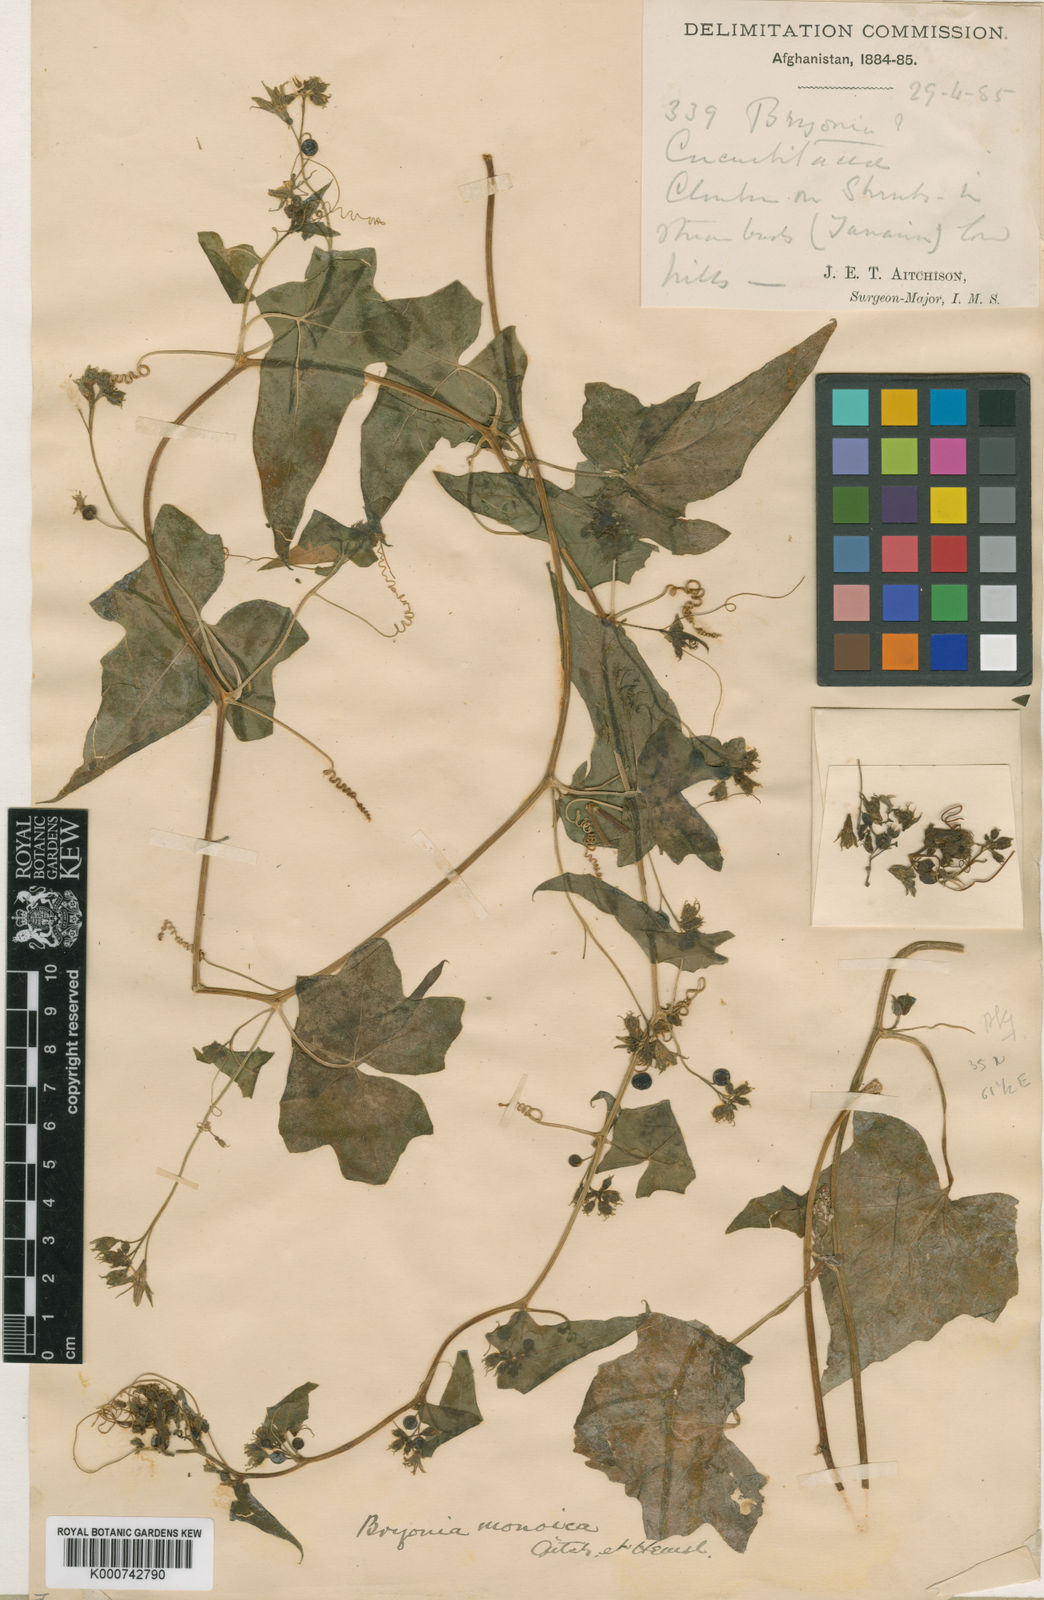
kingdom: Plantae
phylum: Tracheophyta
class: Magnoliopsida
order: Cucurbitales
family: Cucurbitaceae
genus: Bryonia
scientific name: Bryonia monoica
